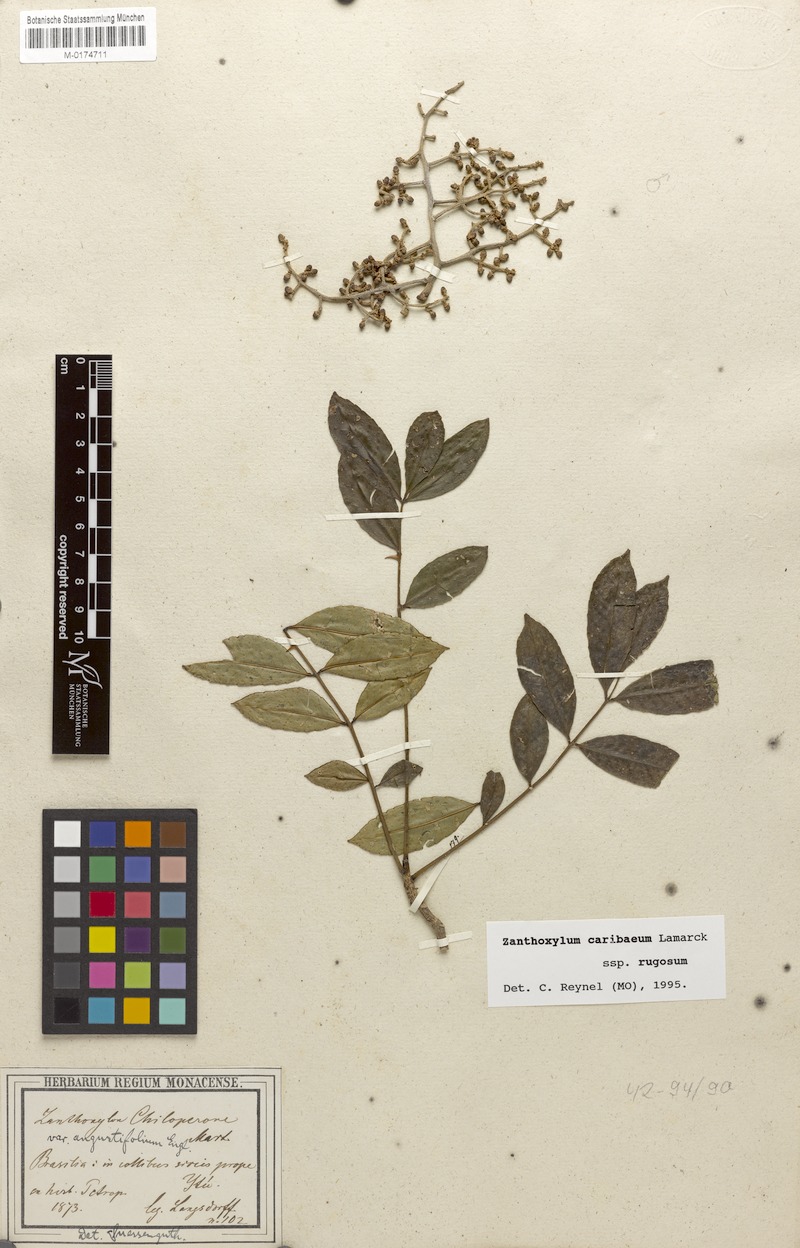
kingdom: Plantae
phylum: Tracheophyta
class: Magnoliopsida
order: Sapindales
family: Rutaceae
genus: Zanthoxylum
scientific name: Zanthoxylum caribaeum
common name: Prickly yellow
